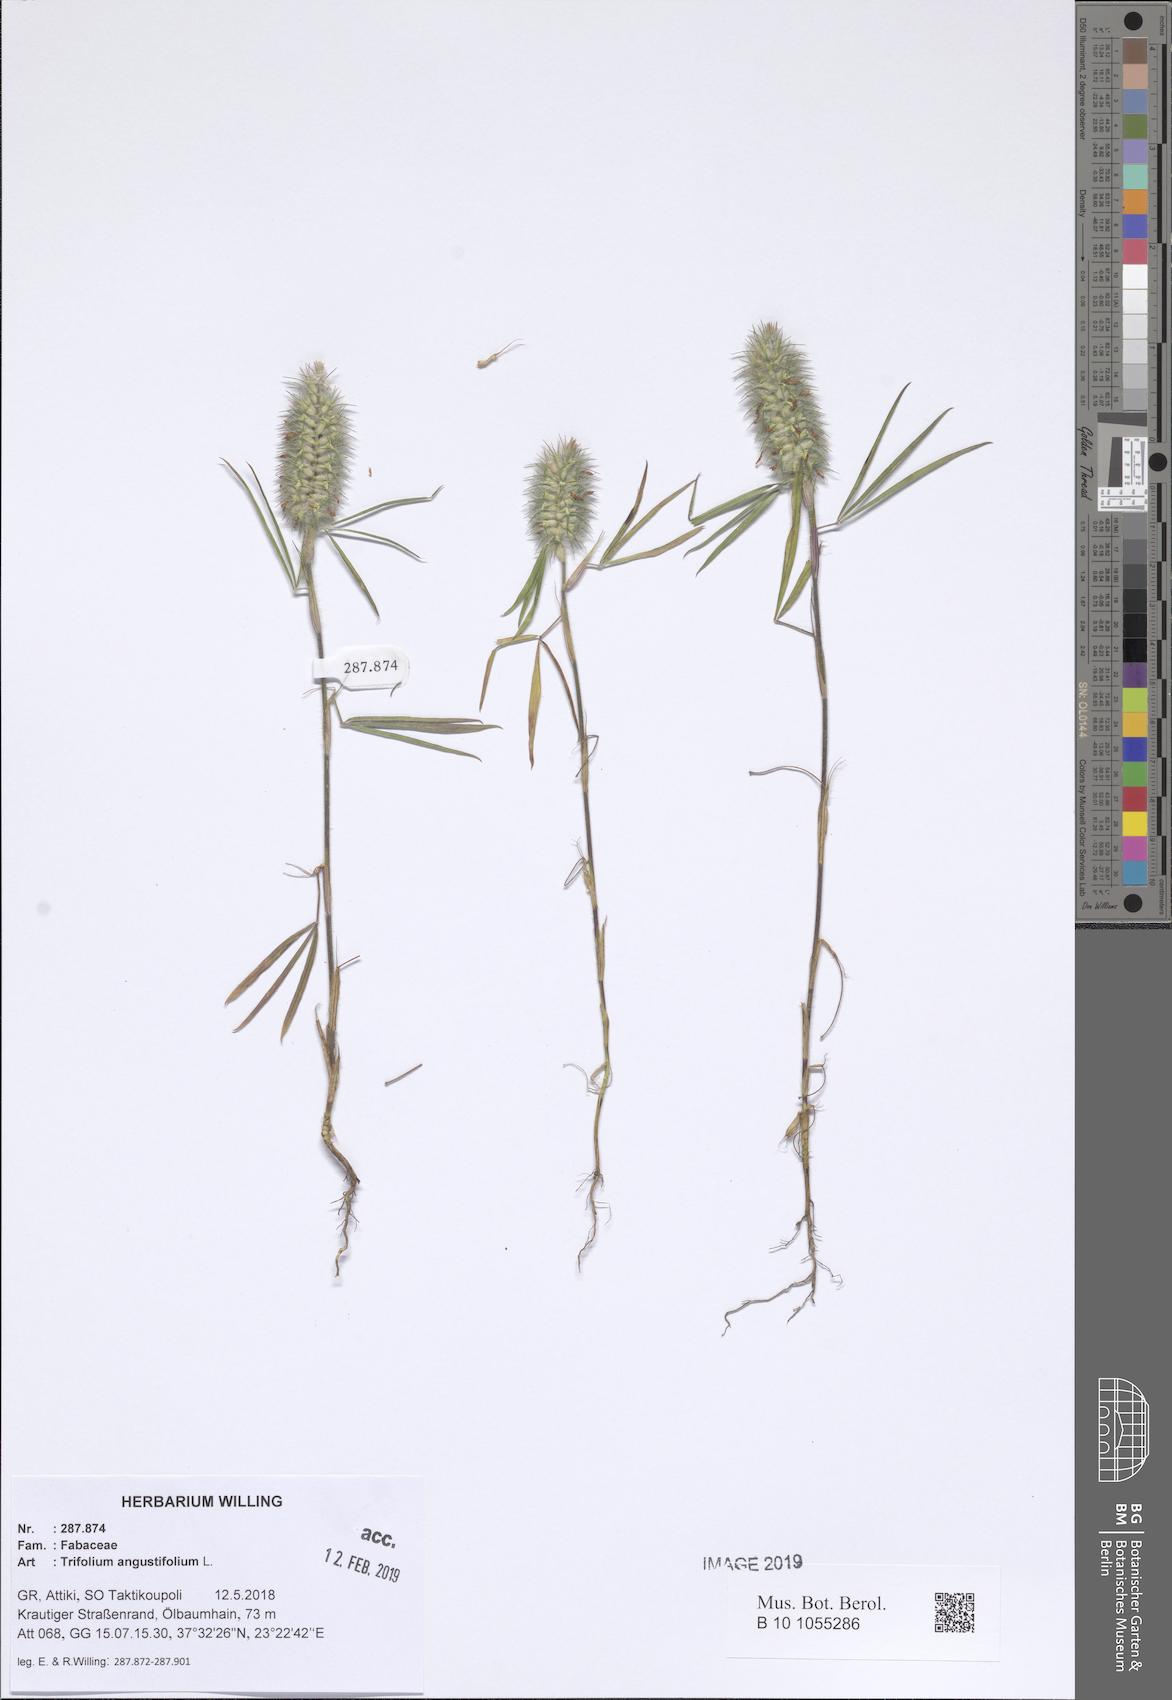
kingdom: Plantae
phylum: Tracheophyta
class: Magnoliopsida
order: Fabales
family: Fabaceae
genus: Trifolium
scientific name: Trifolium angustifolium
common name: Narrow clover
